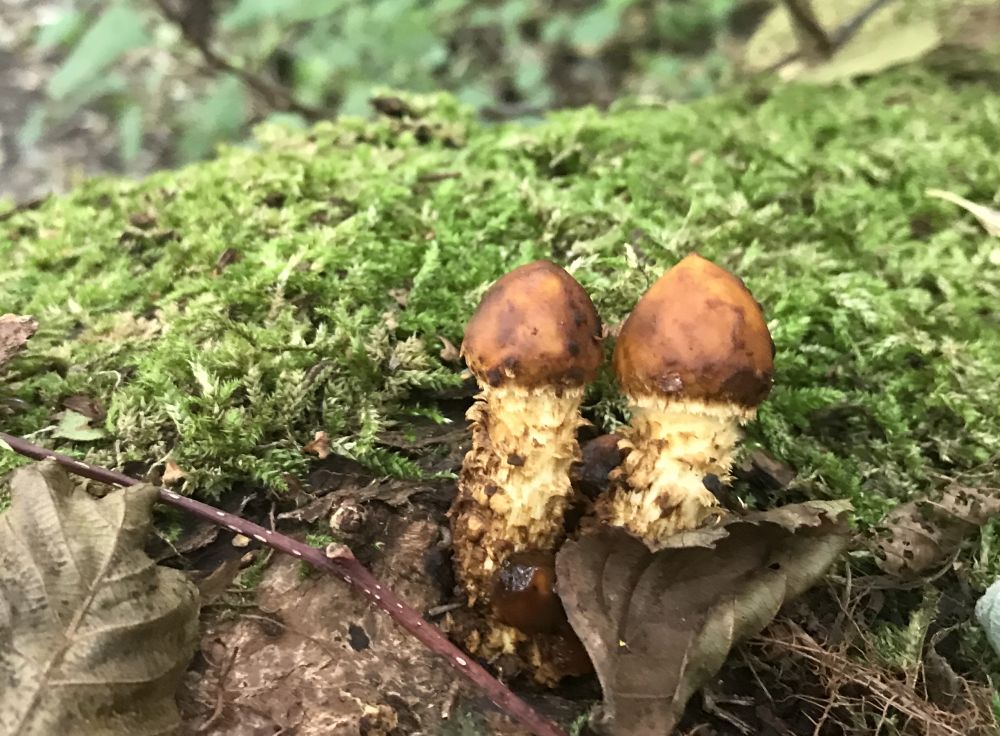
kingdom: Fungi
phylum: Basidiomycota
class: Agaricomycetes
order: Agaricales
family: Strophariaceae
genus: Pholiota
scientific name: Pholiota aurivella
